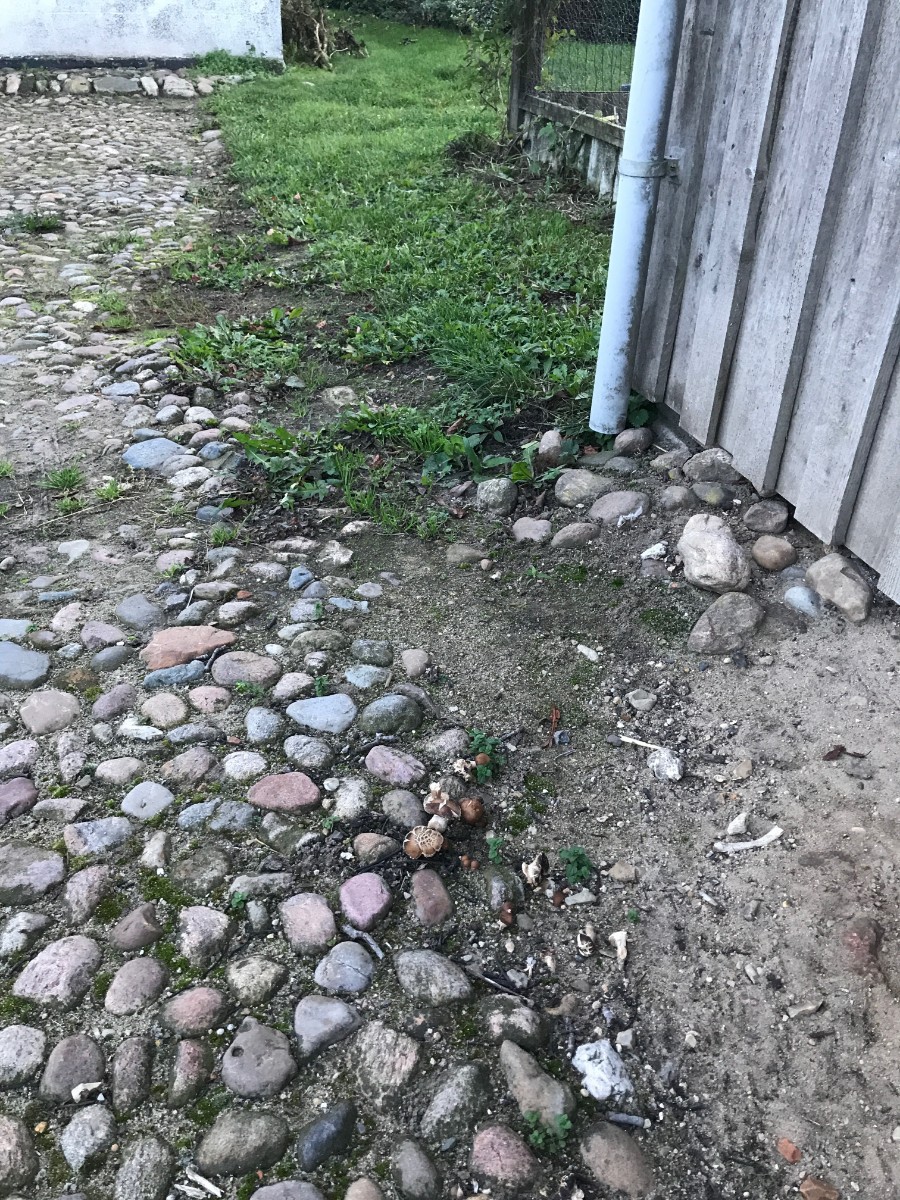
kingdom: Fungi
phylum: Basidiomycota
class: Agaricomycetes
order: Agaricales
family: Tubariaceae
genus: Cyclocybe
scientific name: Cyclocybe erebia
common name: mørk agerhat
